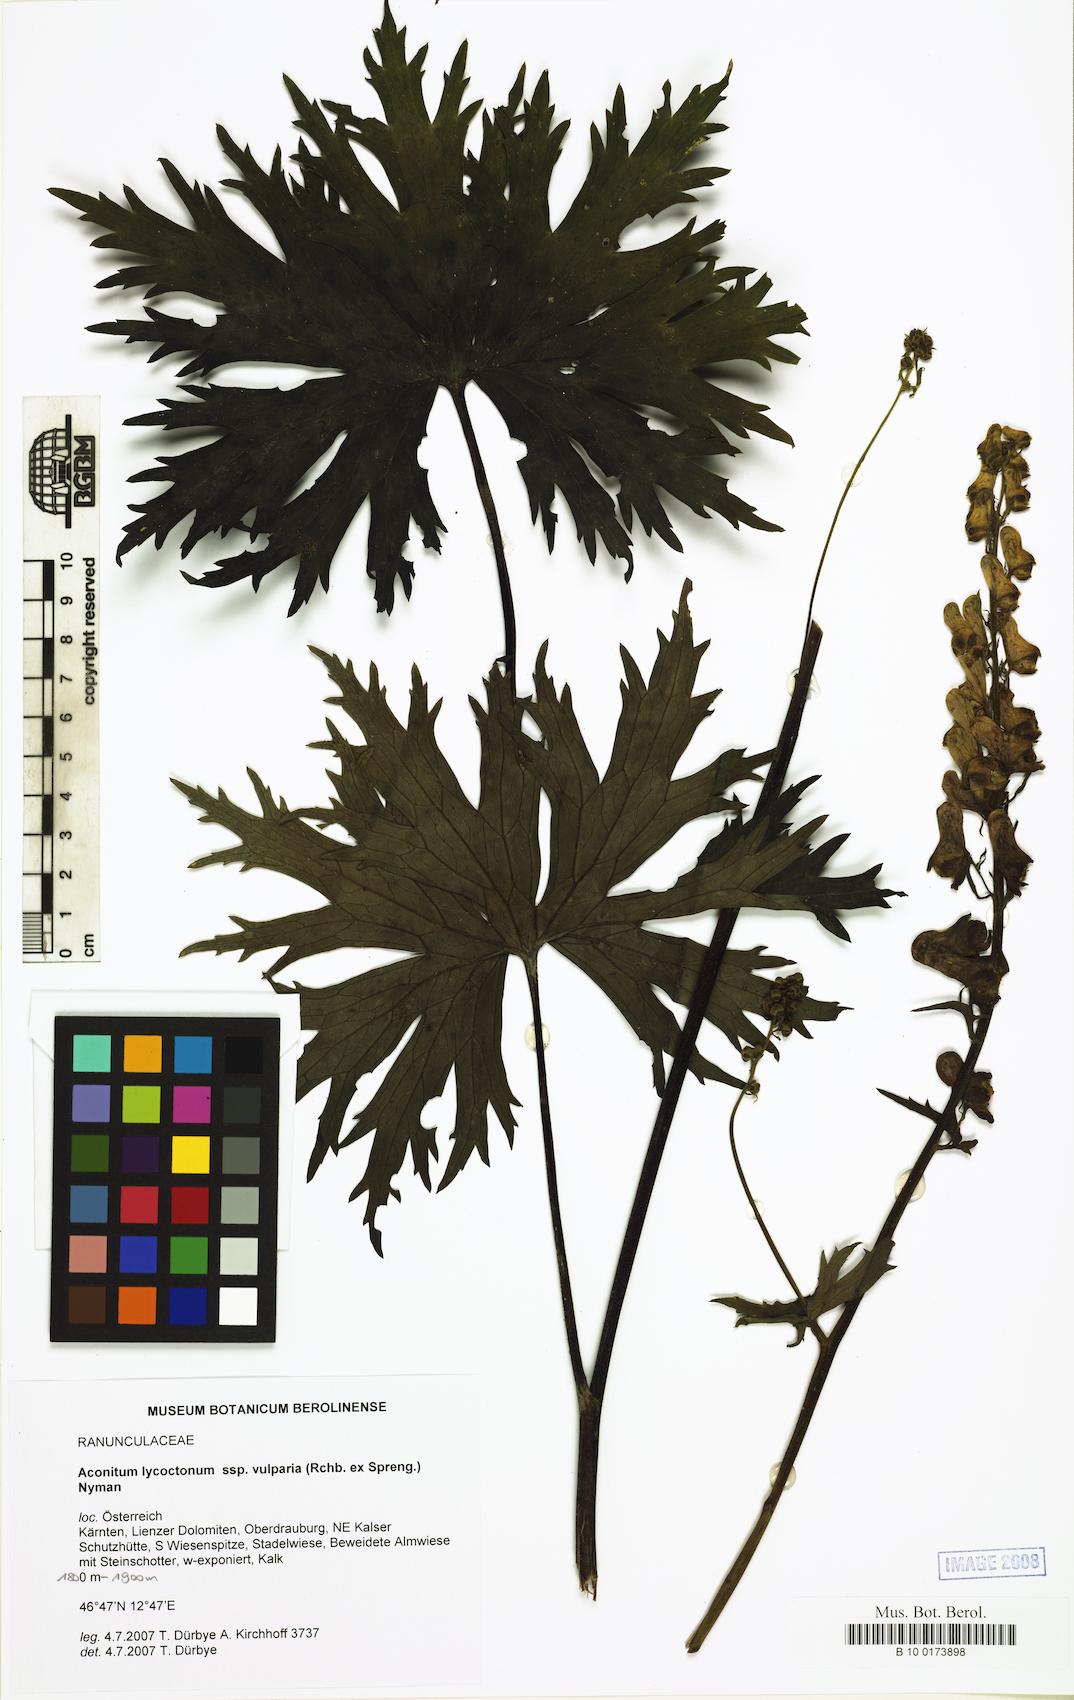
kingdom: Plantae
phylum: Tracheophyta
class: Magnoliopsida
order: Ranunculales
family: Ranunculaceae
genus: Aconitum
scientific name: Aconitum lycoctonum
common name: Wolf's-bane
